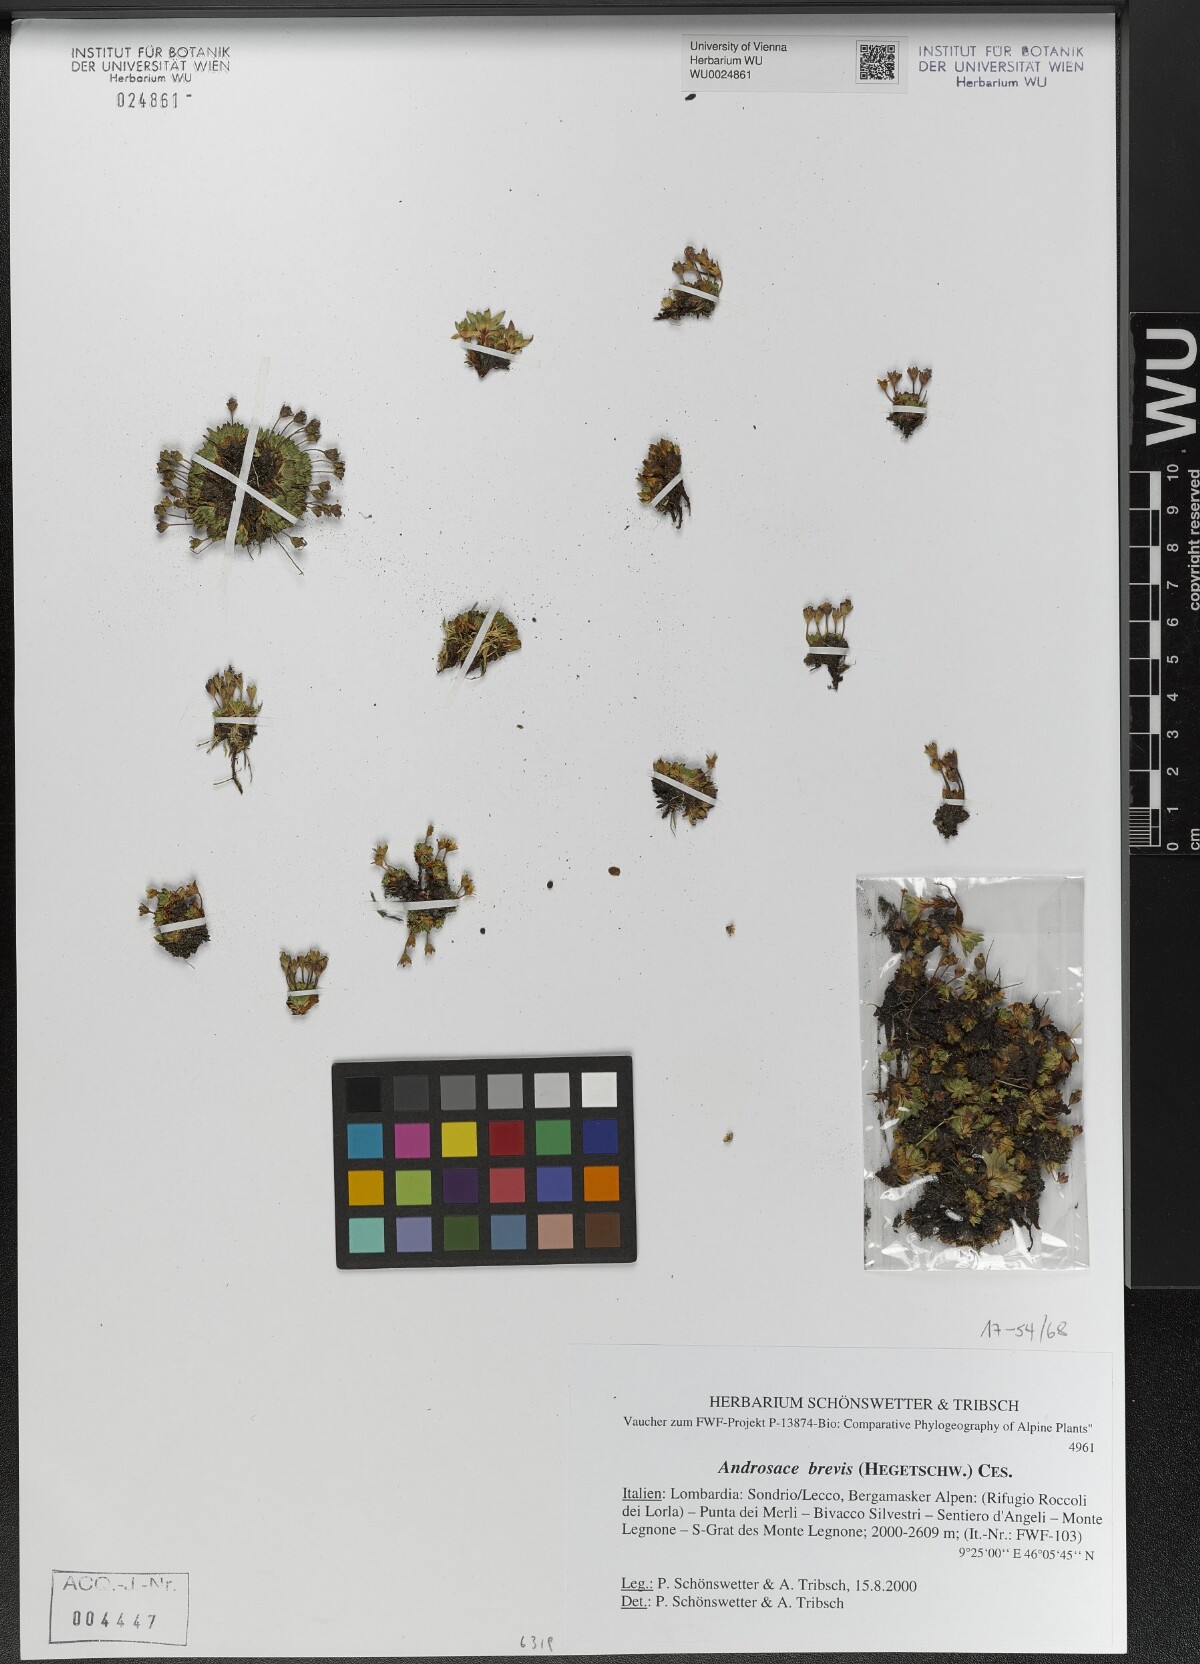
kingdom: Plantae
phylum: Tracheophyta
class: Magnoliopsida
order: Ericales
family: Primulaceae
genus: Androsace
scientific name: Androsace brevis
